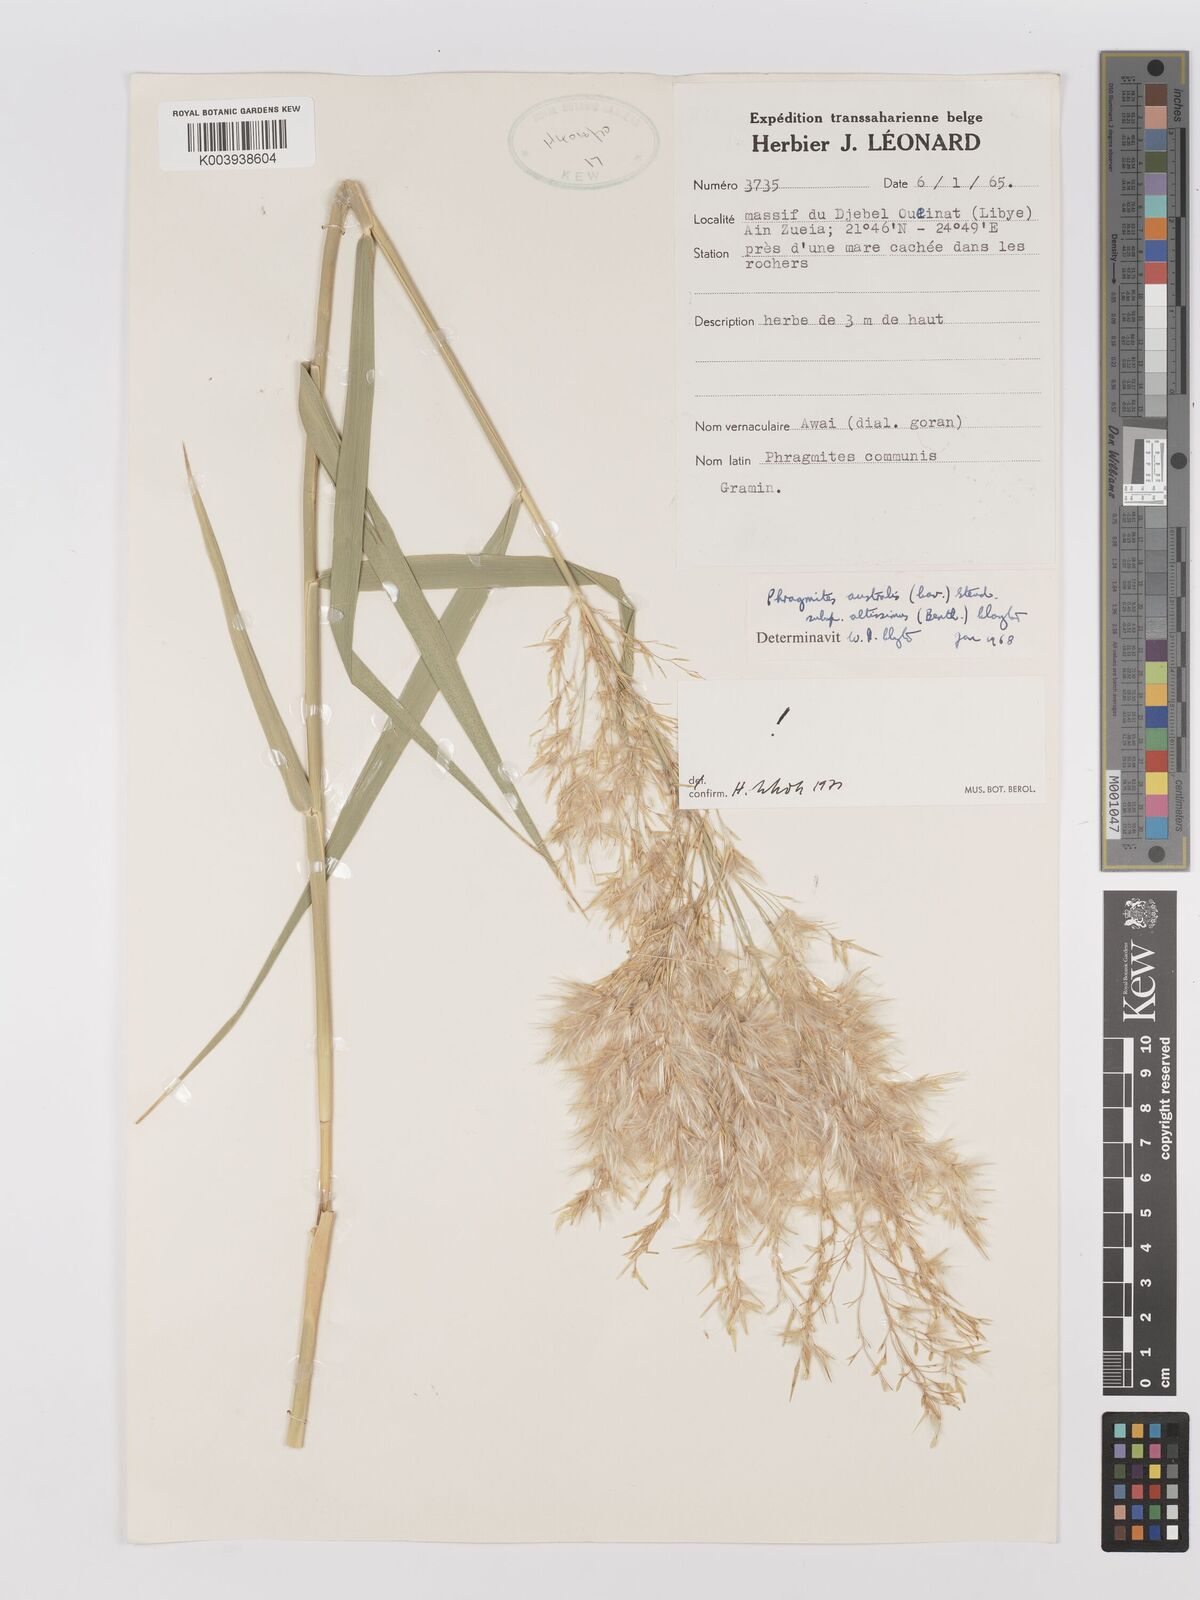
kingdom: Plantae
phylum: Tracheophyta
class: Liliopsida
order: Poales
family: Poaceae
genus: Phragmites
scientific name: Phragmites australis
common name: Common reed
